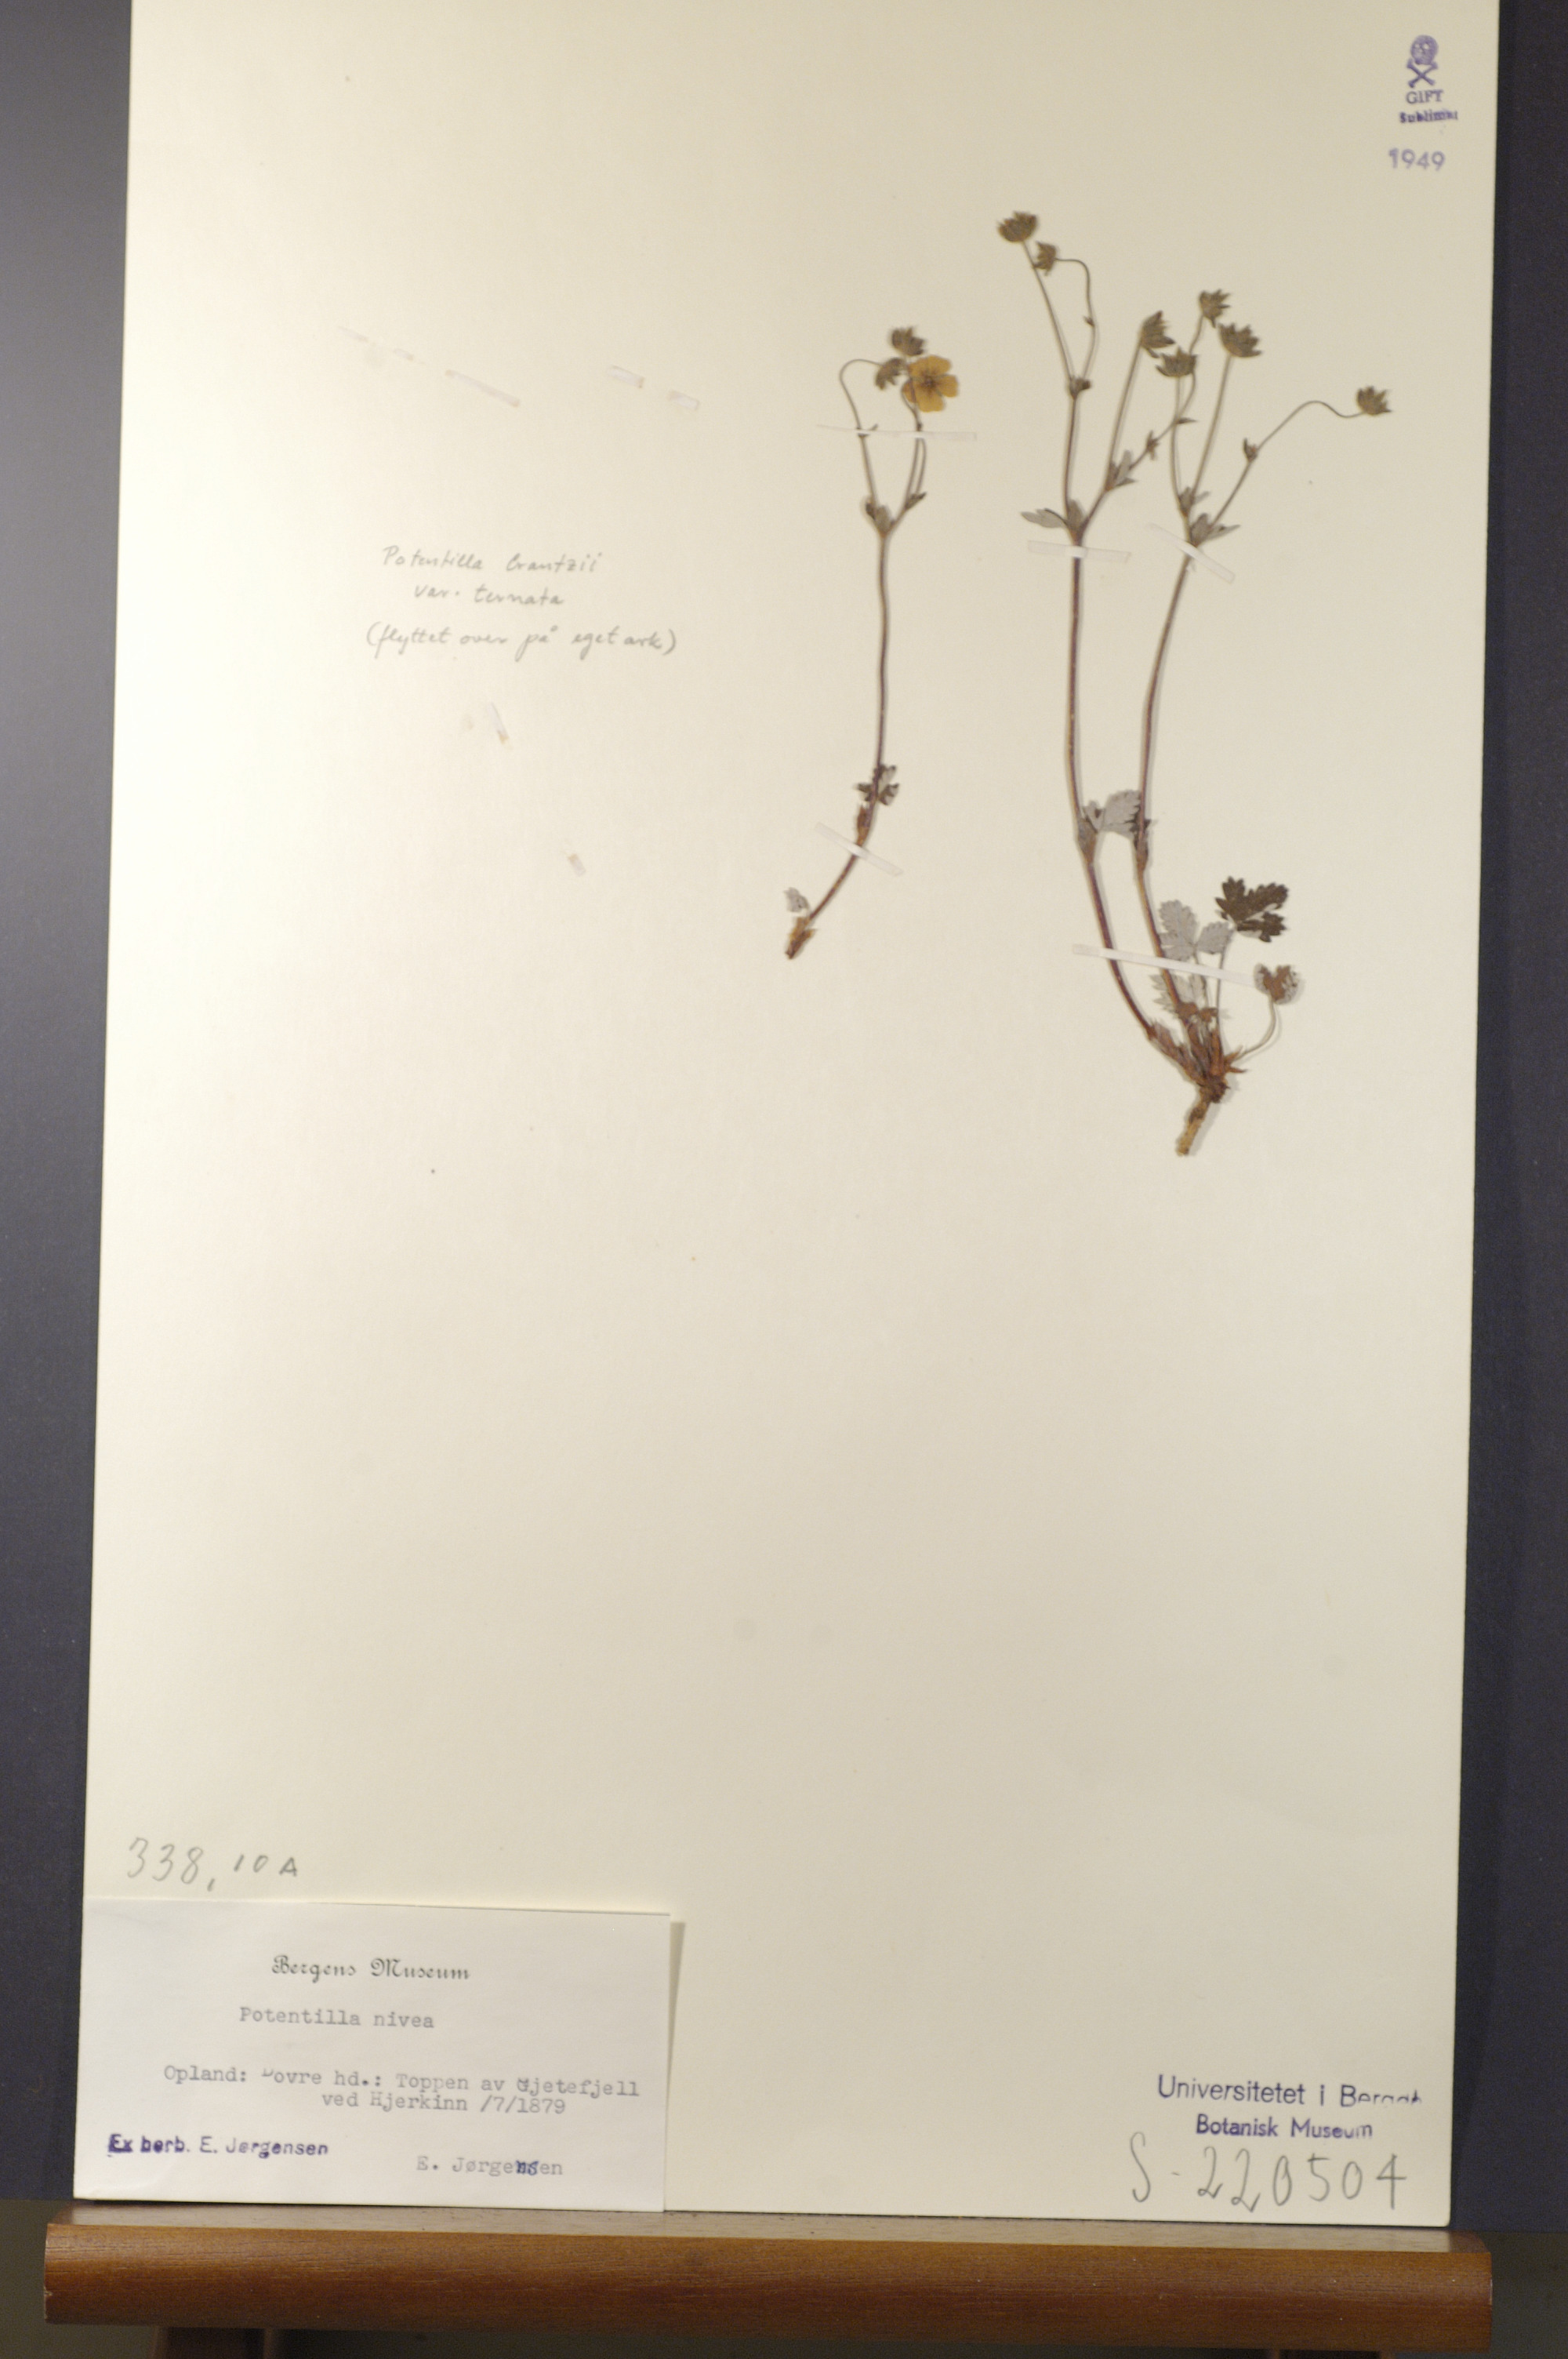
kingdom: Plantae
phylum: Tracheophyta
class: Magnoliopsida
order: Rosales
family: Rosaceae
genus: Potentilla
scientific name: Potentilla arenosa
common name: Bluff cinquefoil
